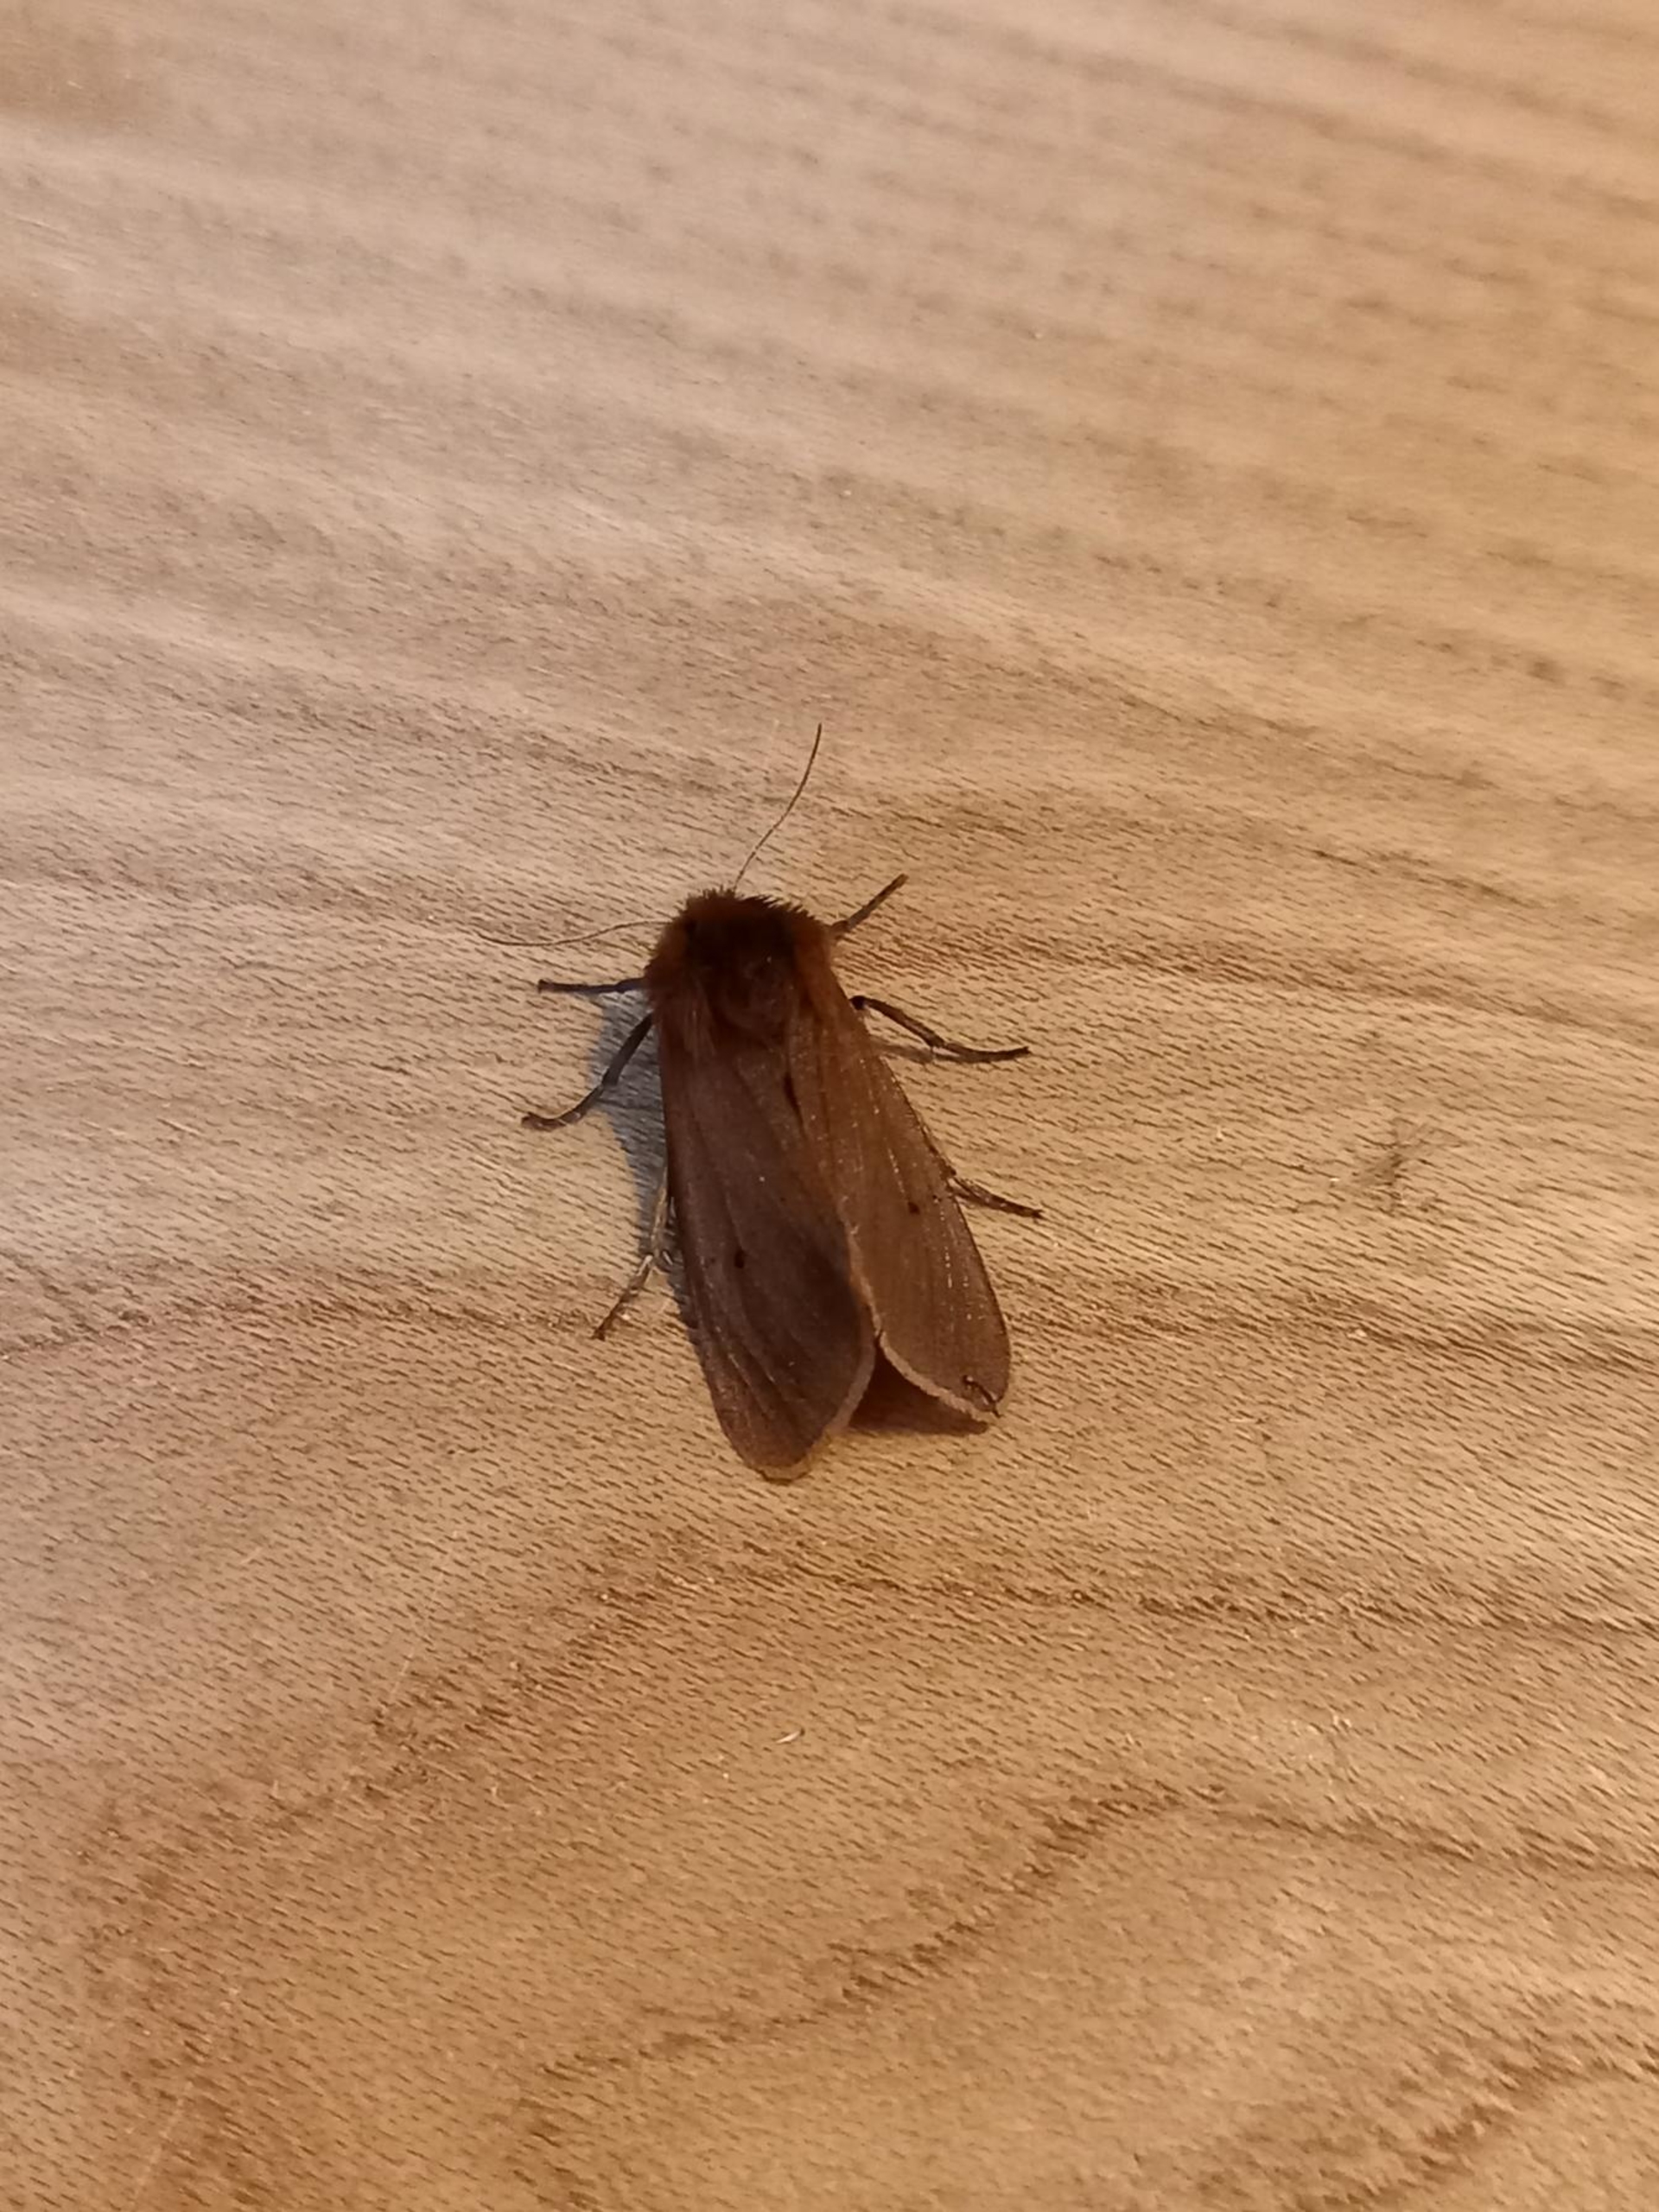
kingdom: Animalia
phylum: Arthropoda
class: Insecta
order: Lepidoptera
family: Erebidae
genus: Phragmatobia
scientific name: Phragmatobia fuliginosa
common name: Kanelbjørn
